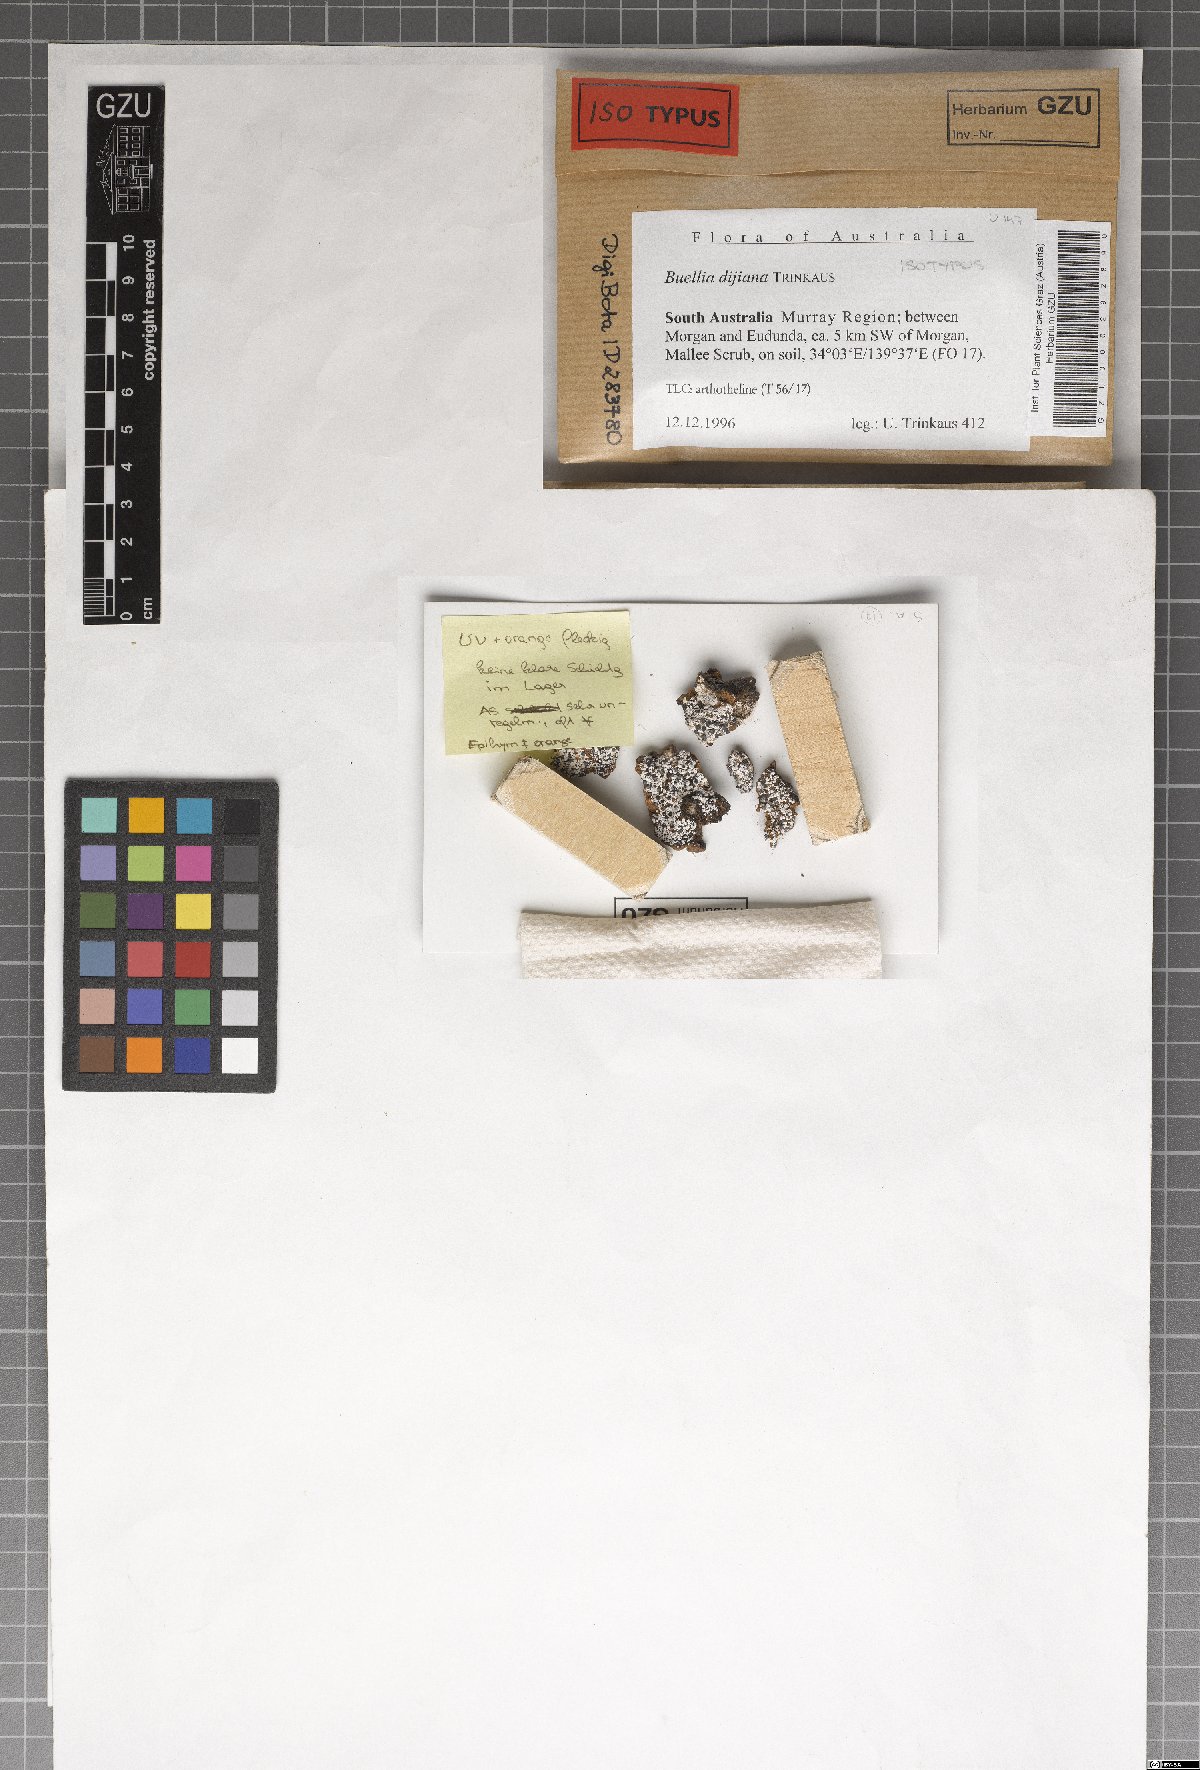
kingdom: Fungi
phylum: Ascomycota
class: Lecanoromycetes
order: Caliciales
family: Caliciaceae
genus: Buellia
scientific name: Buellia dayboroana
